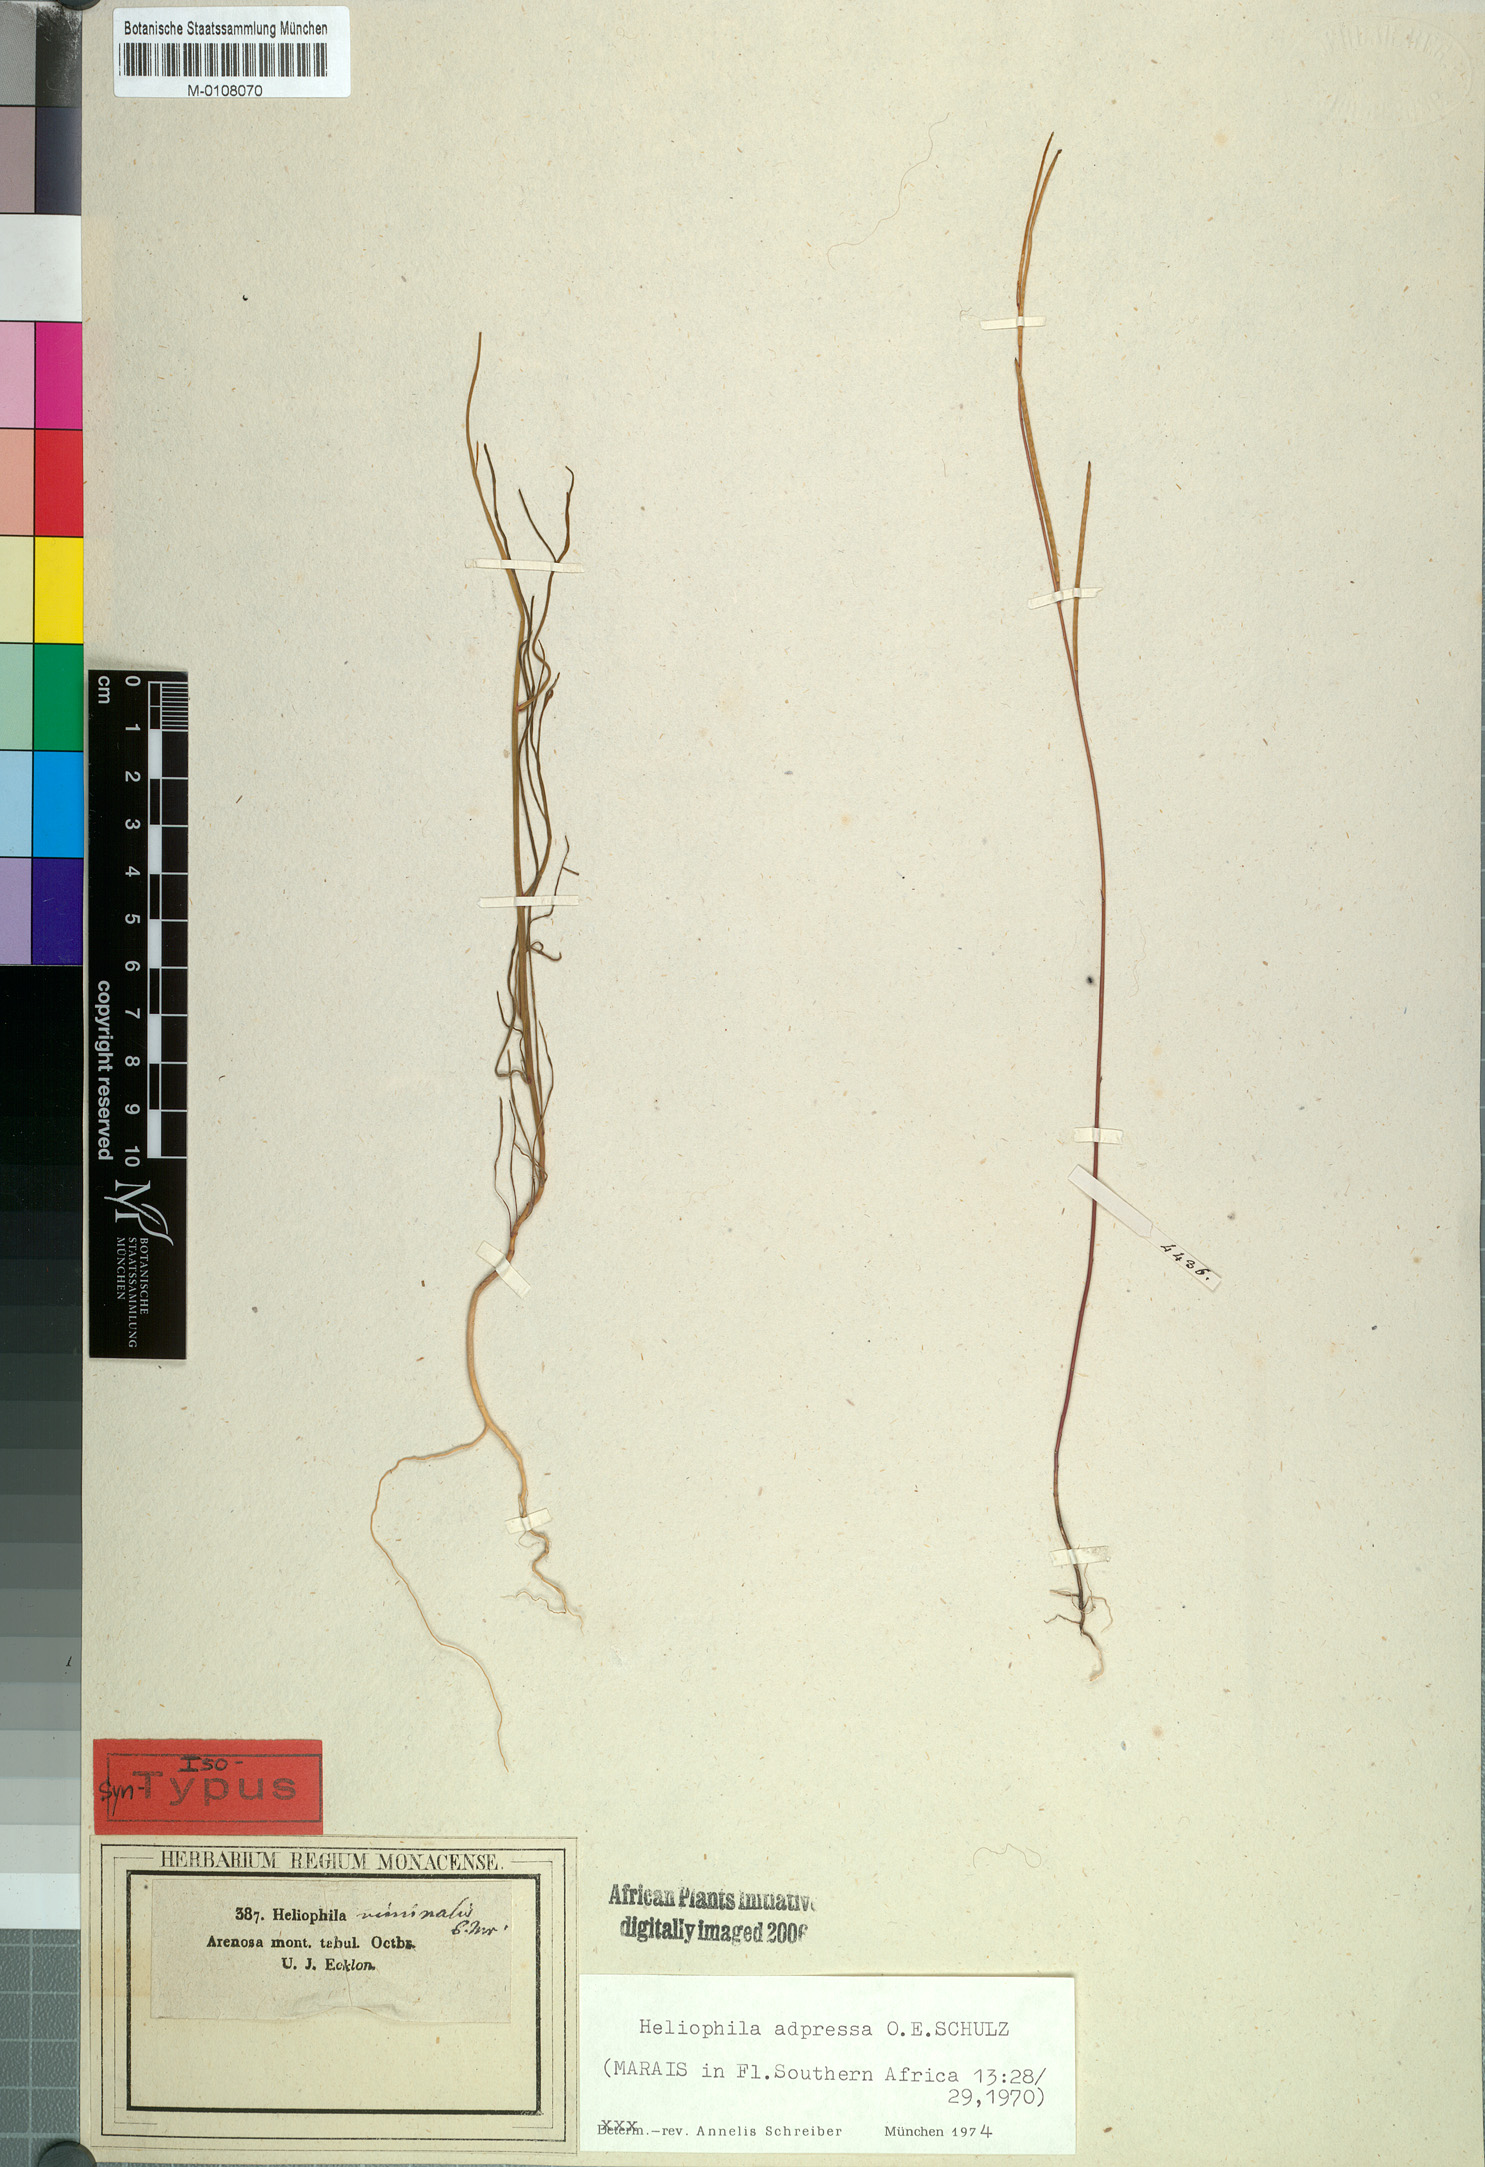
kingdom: Plantae
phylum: Tracheophyta
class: Magnoliopsida
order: Brassicales
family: Brassicaceae
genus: Heliophila
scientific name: Heliophila adpressa
